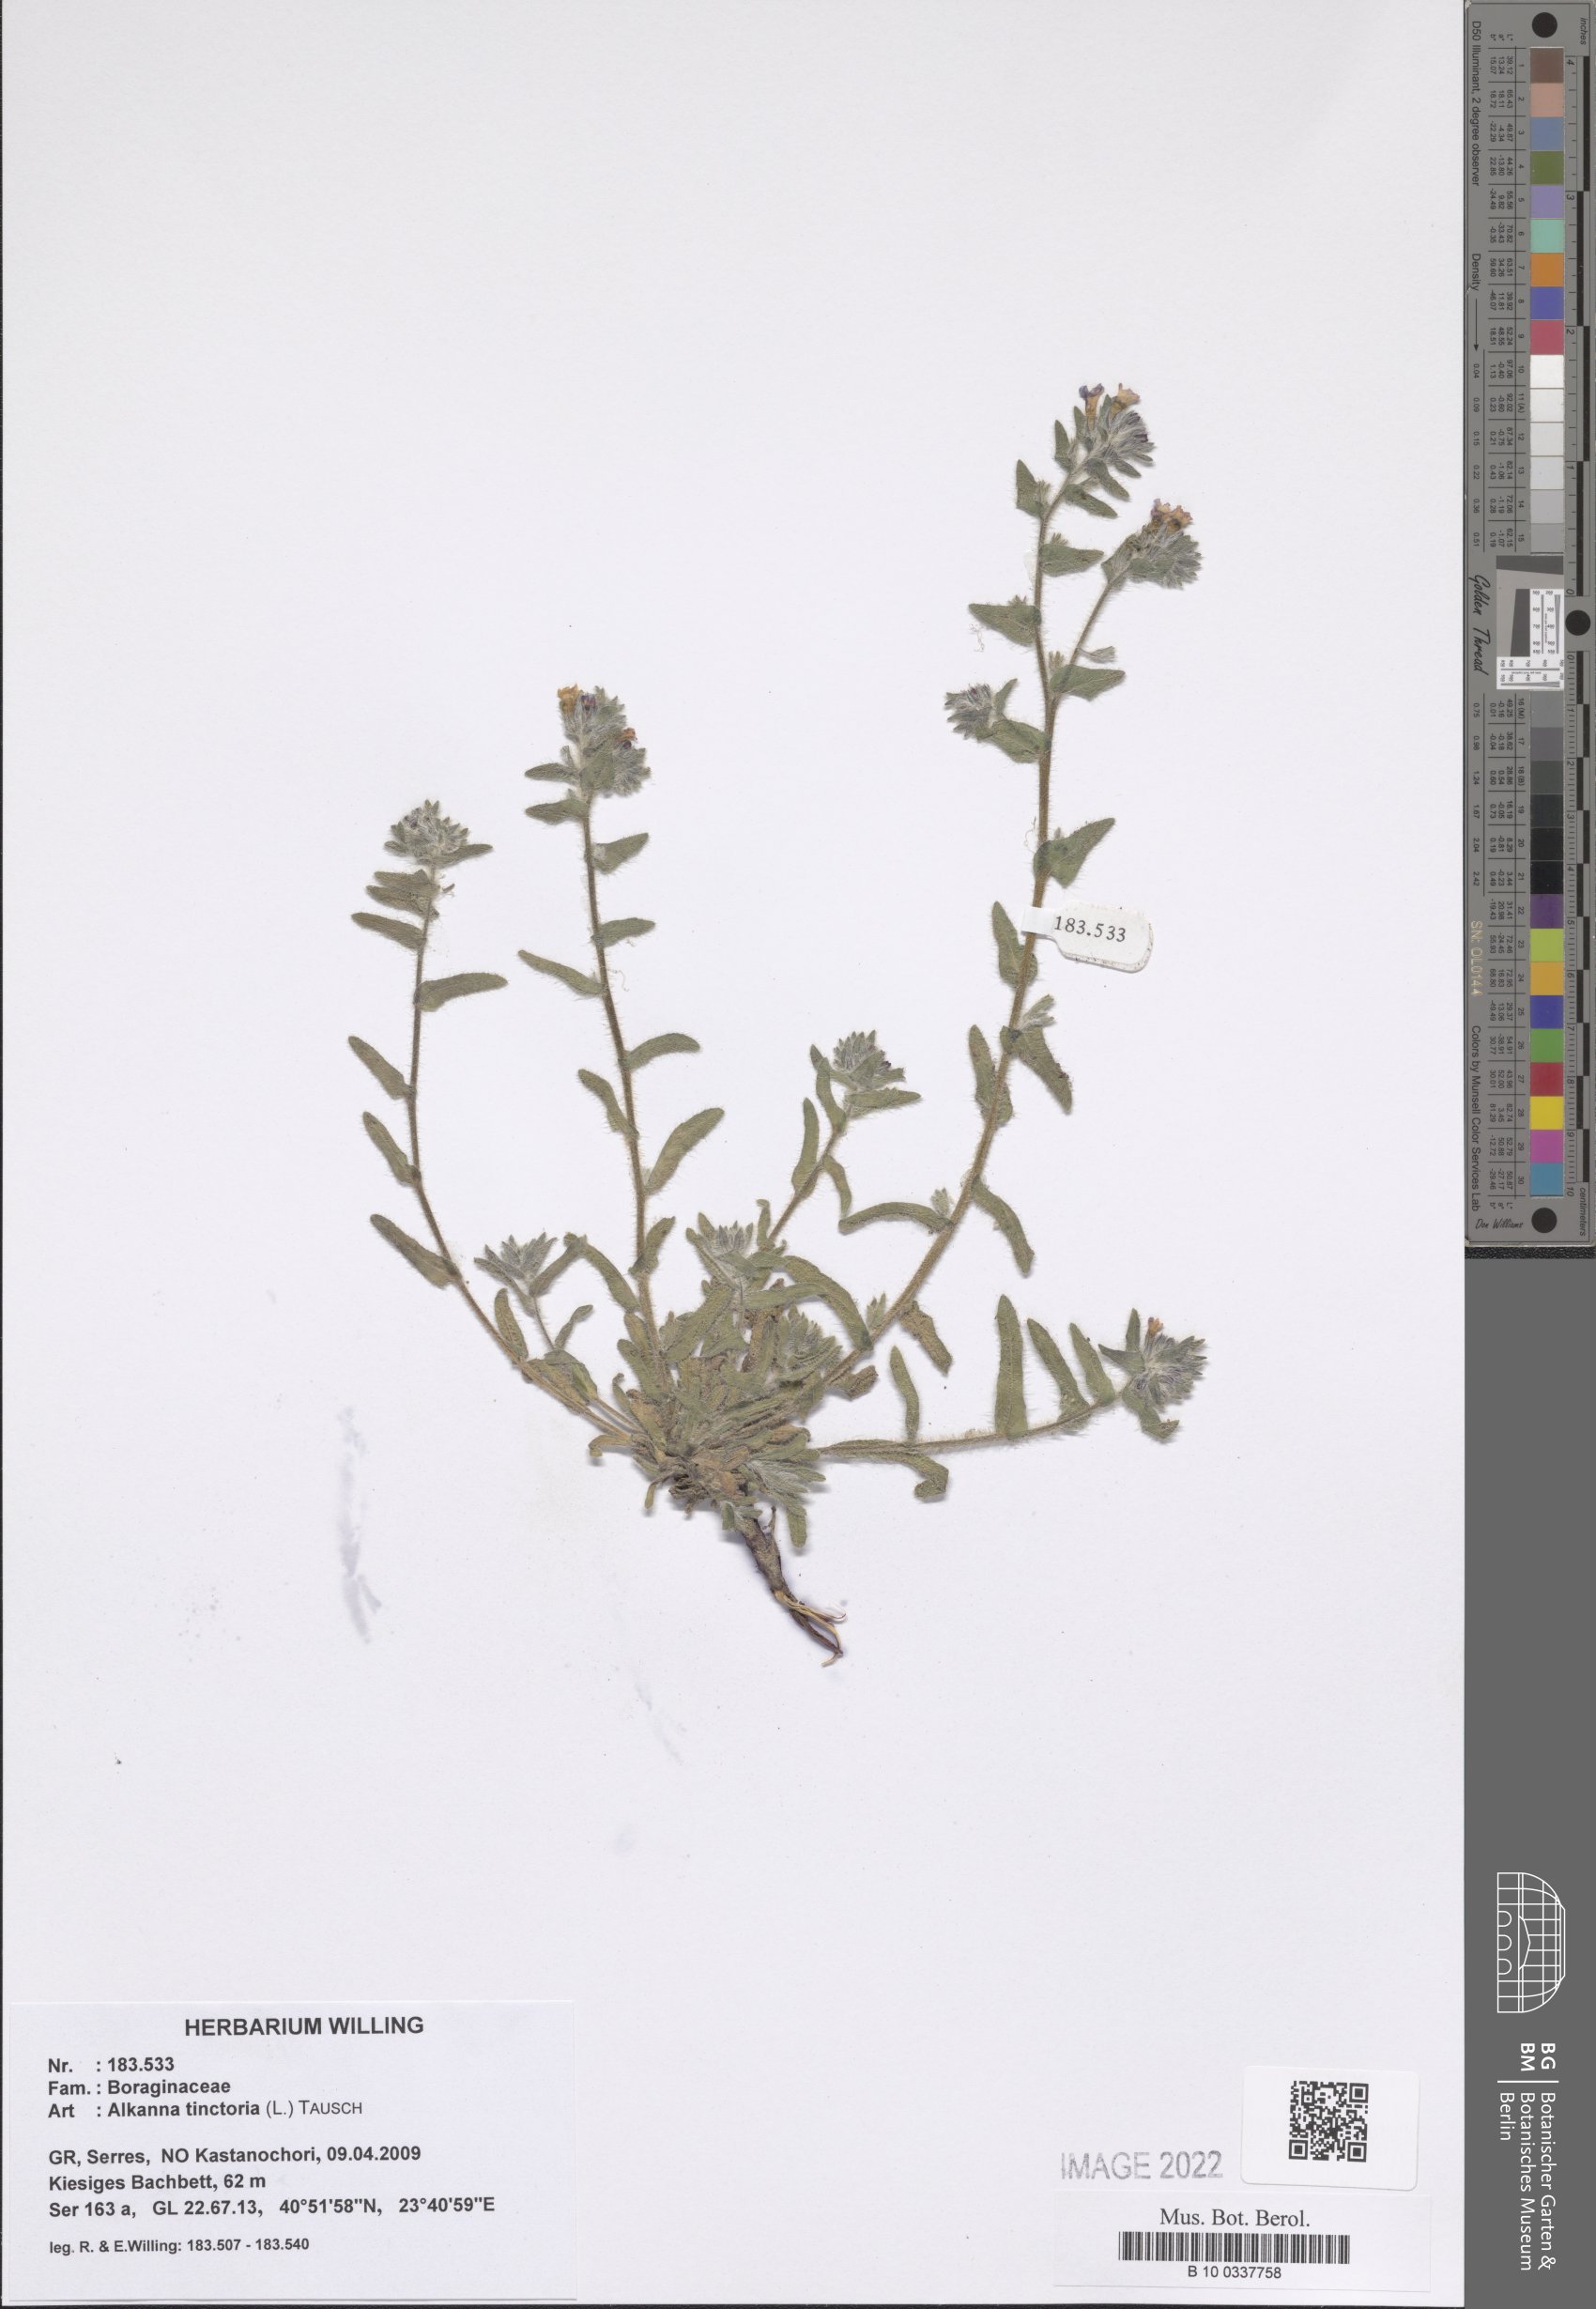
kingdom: Plantae
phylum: Tracheophyta
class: Magnoliopsida
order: Boraginales
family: Boraginaceae
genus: Alkanna
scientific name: Alkanna tinctoria
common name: Dyer's-alkanet
